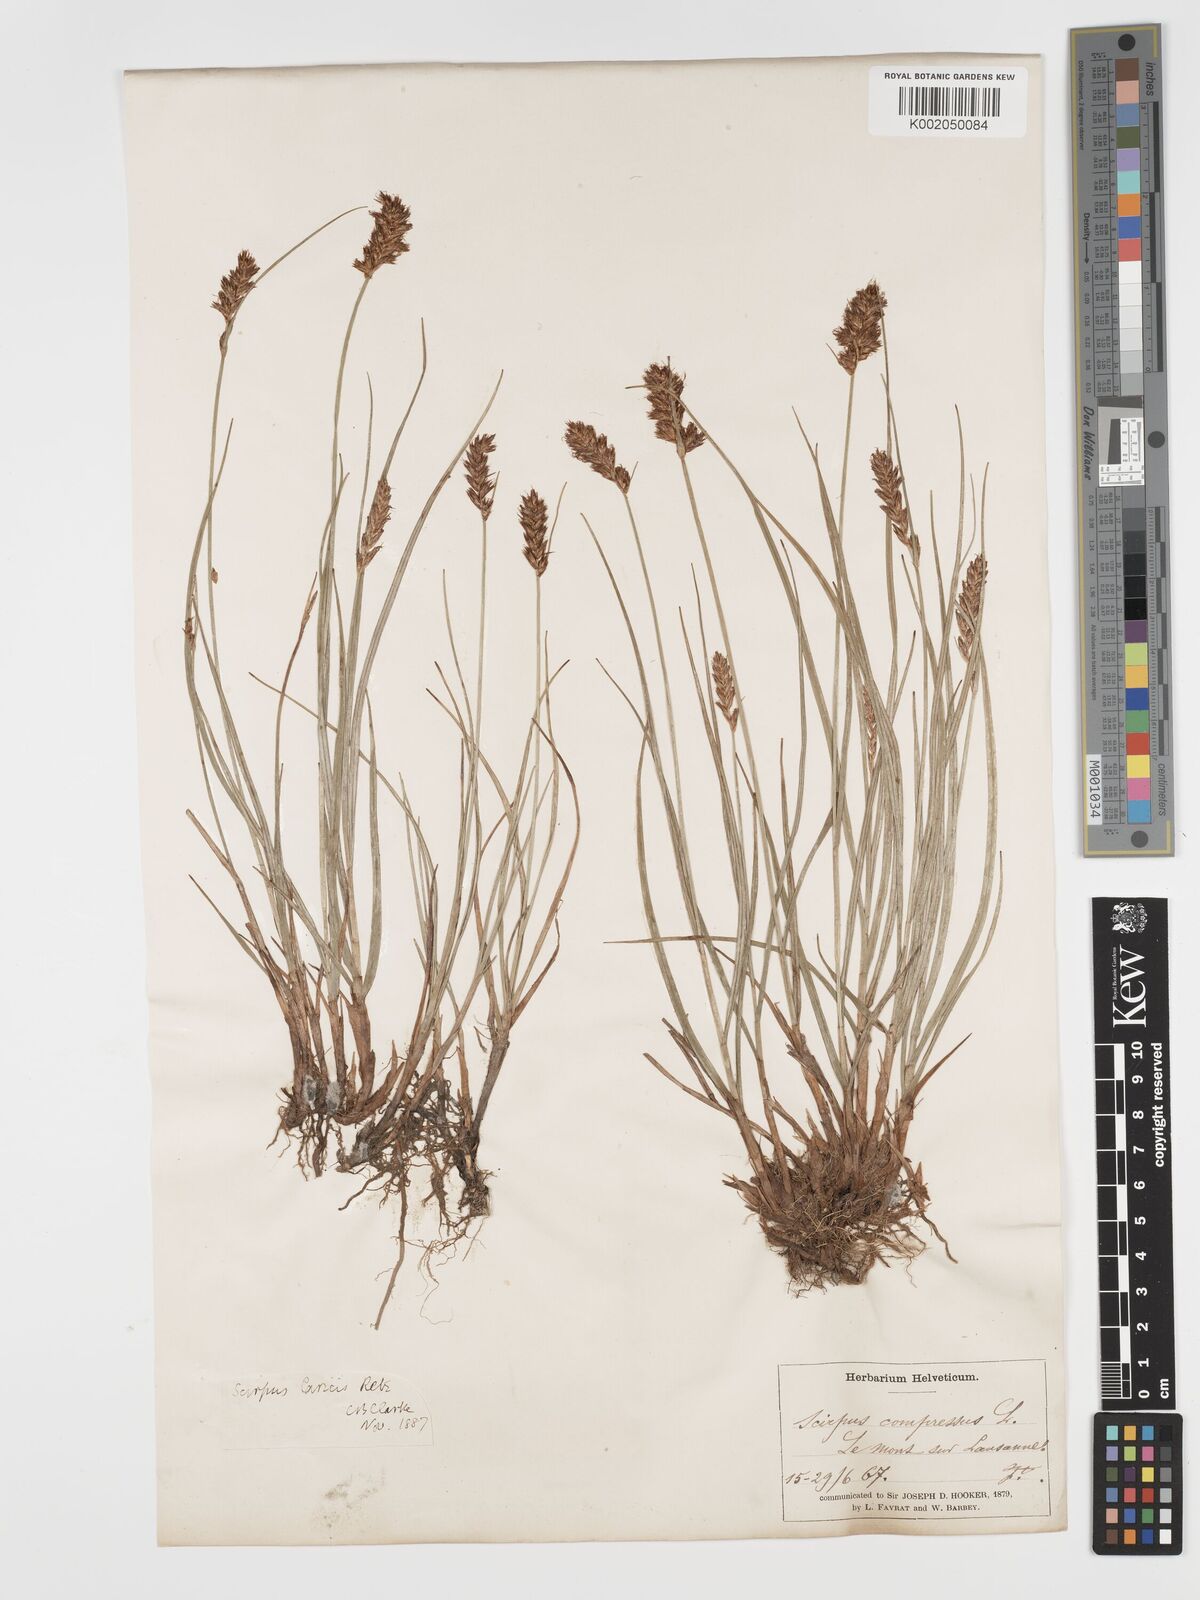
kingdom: Plantae
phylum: Tracheophyta
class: Liliopsida
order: Poales
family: Cyperaceae
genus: Blysmus
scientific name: Blysmus compressus
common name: Flat-sedge
